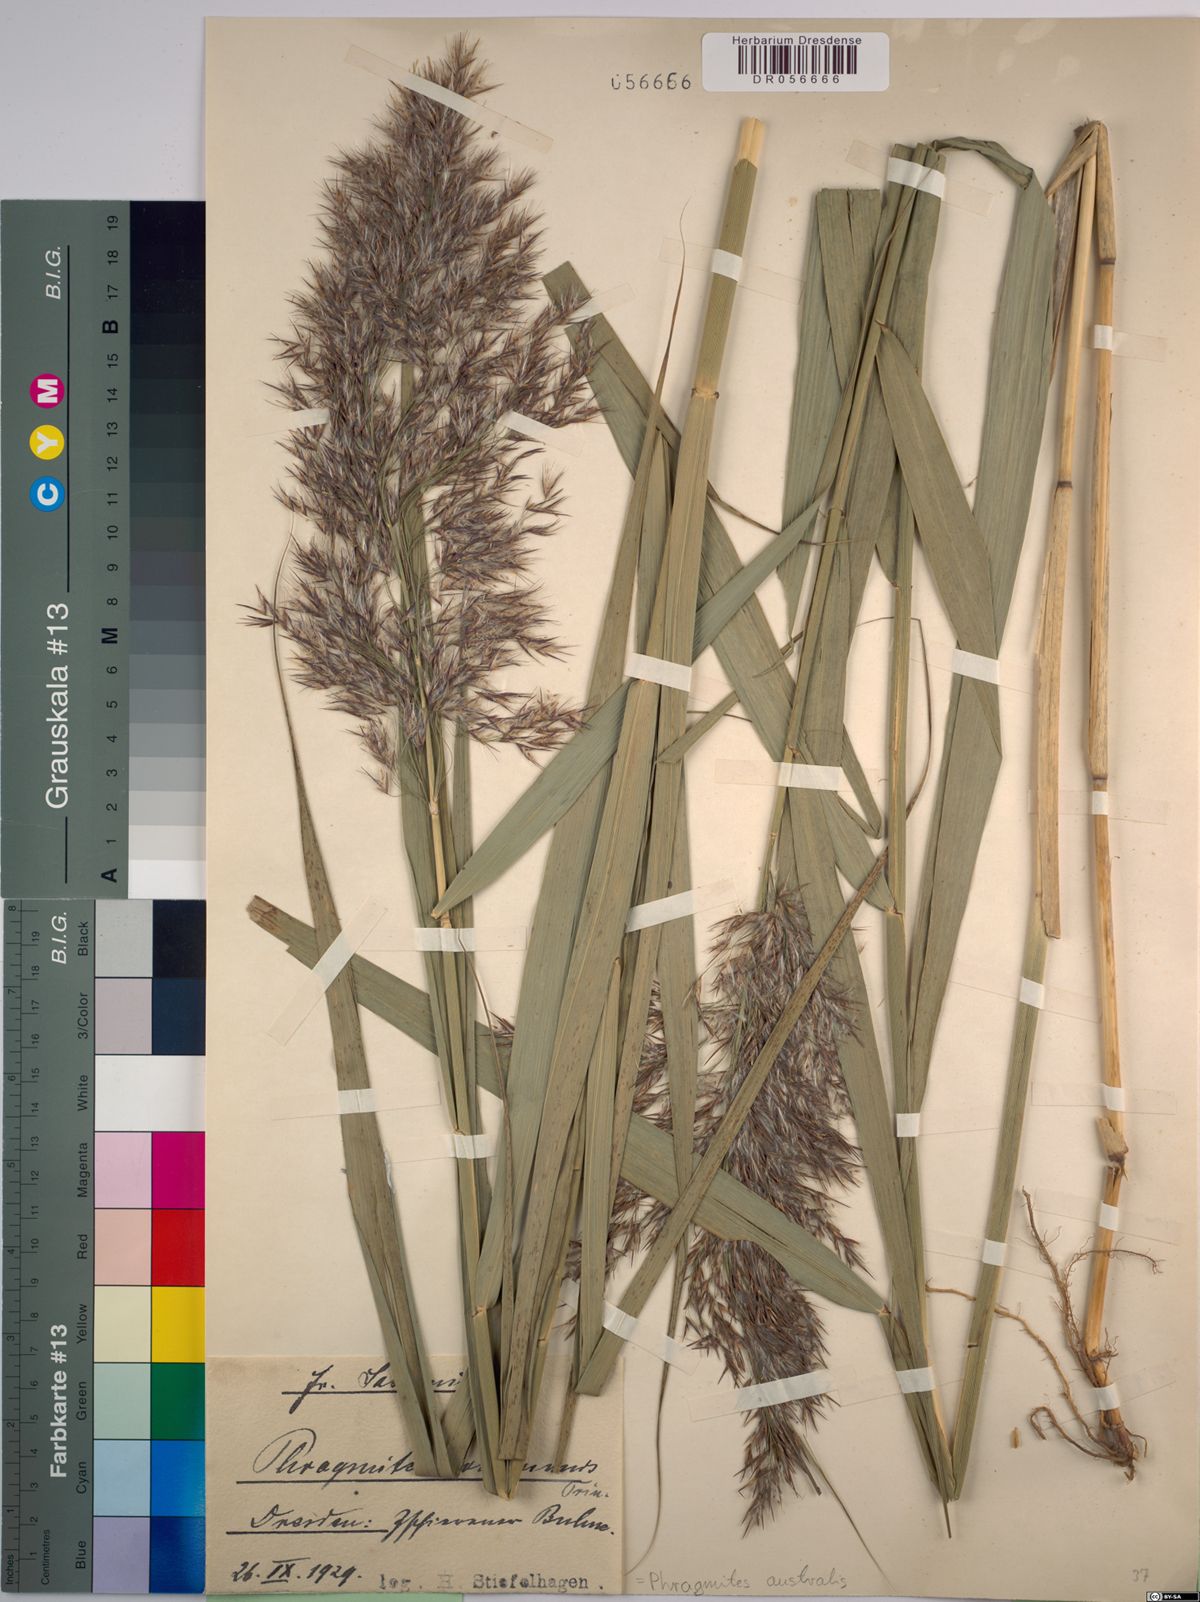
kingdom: Plantae
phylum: Tracheophyta
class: Liliopsida
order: Poales
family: Poaceae
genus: Phragmites
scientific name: Phragmites australis
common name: Common reed
